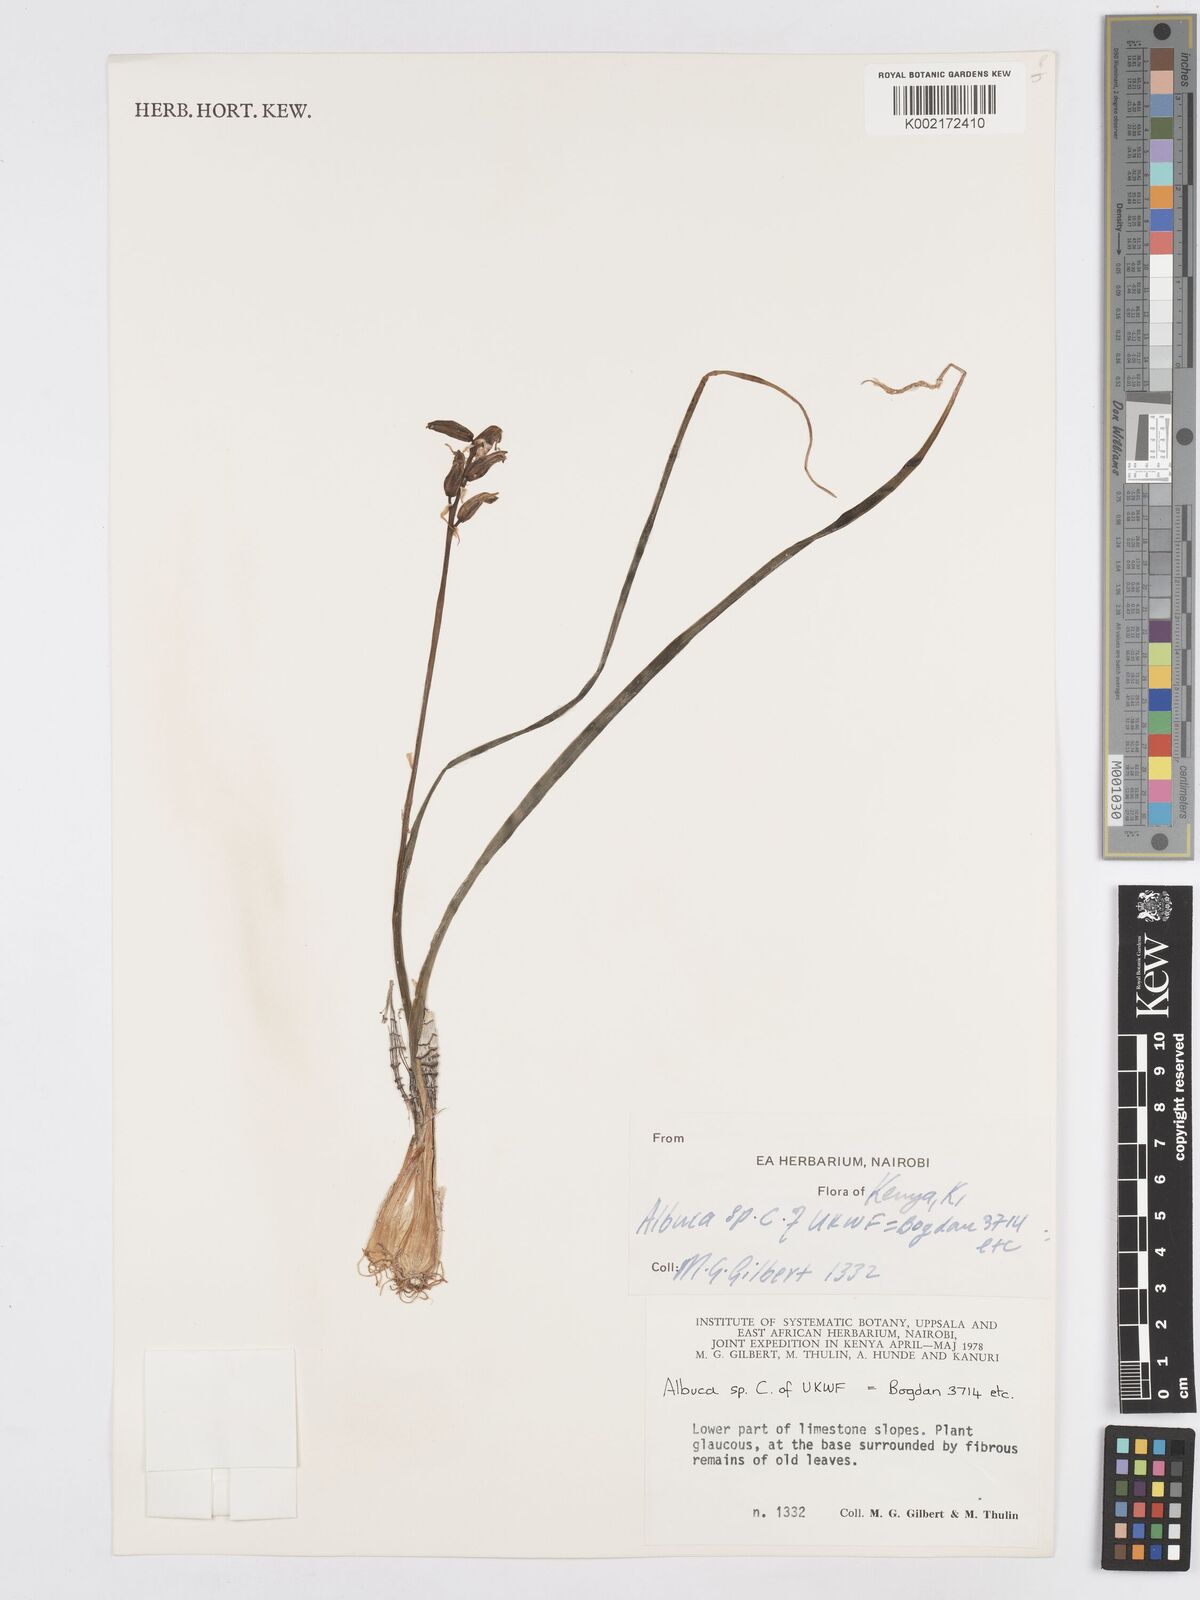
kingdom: Plantae
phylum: Tracheophyta
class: Liliopsida
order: Asparagales
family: Asparagaceae
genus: Albuca
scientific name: Albuca abyssinica
